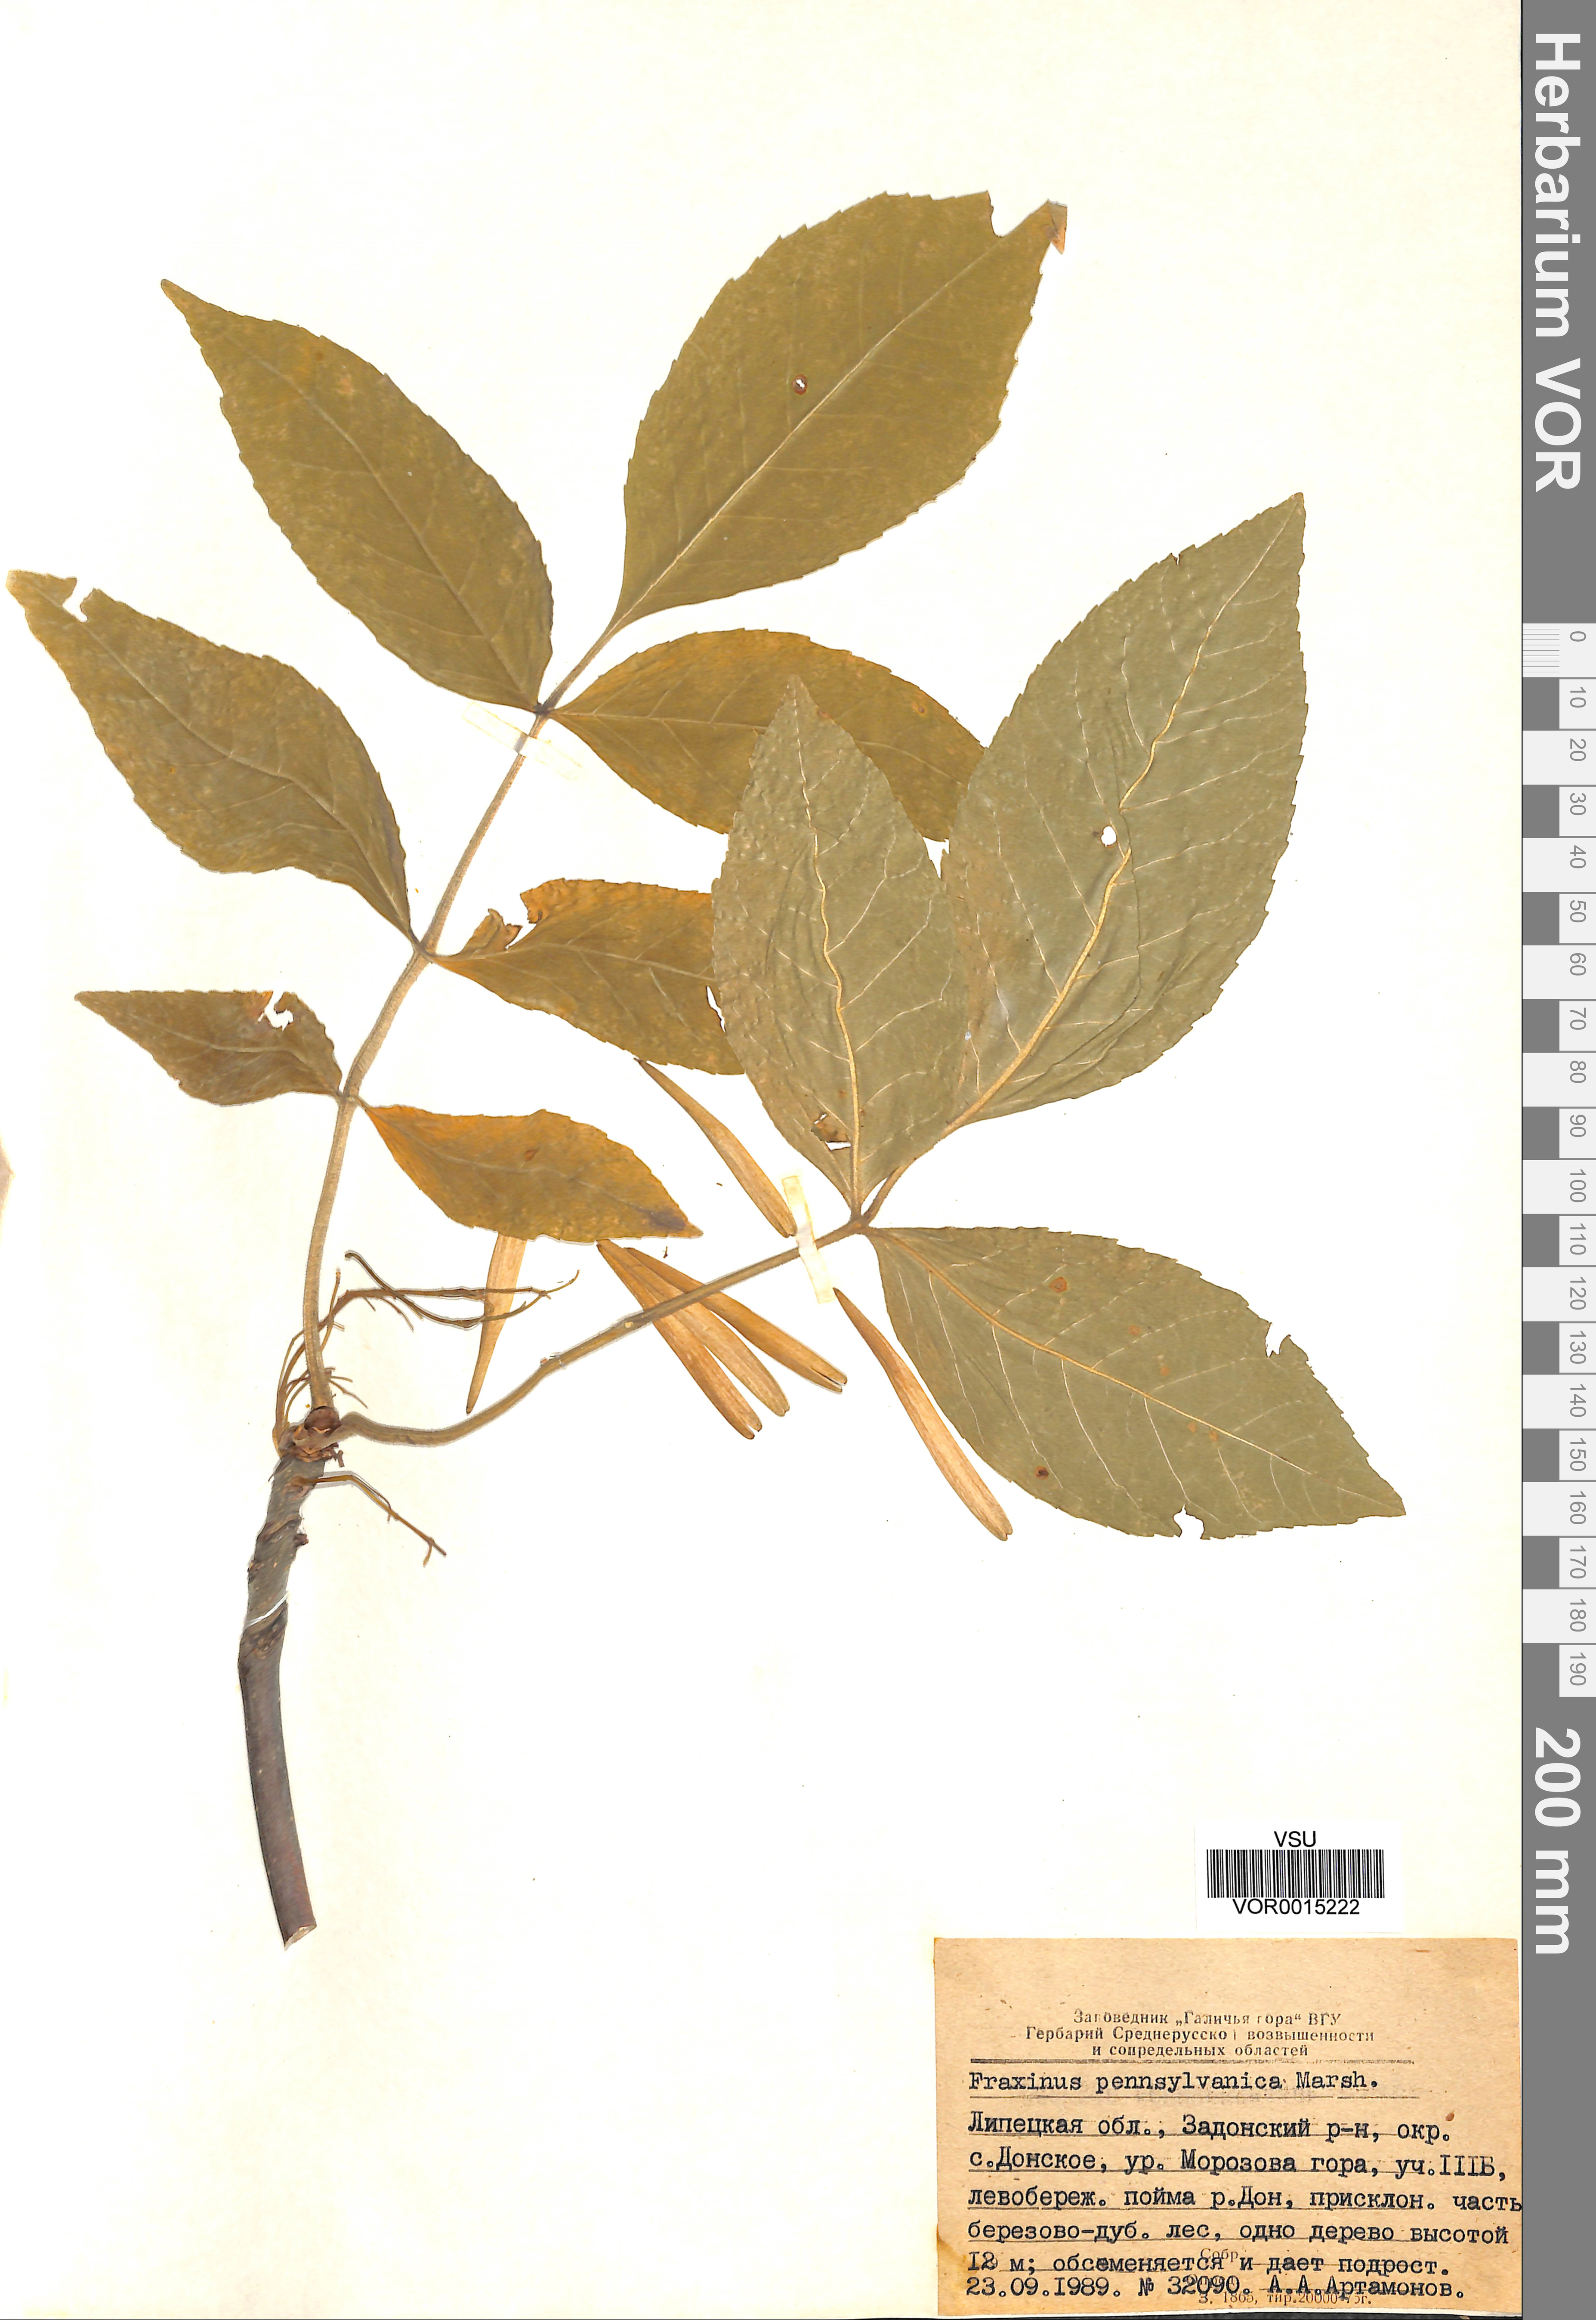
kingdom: Plantae
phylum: Tracheophyta
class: Magnoliopsida
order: Lamiales
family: Oleaceae
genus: Fraxinus
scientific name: Fraxinus pennsylvanica
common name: Green ash
